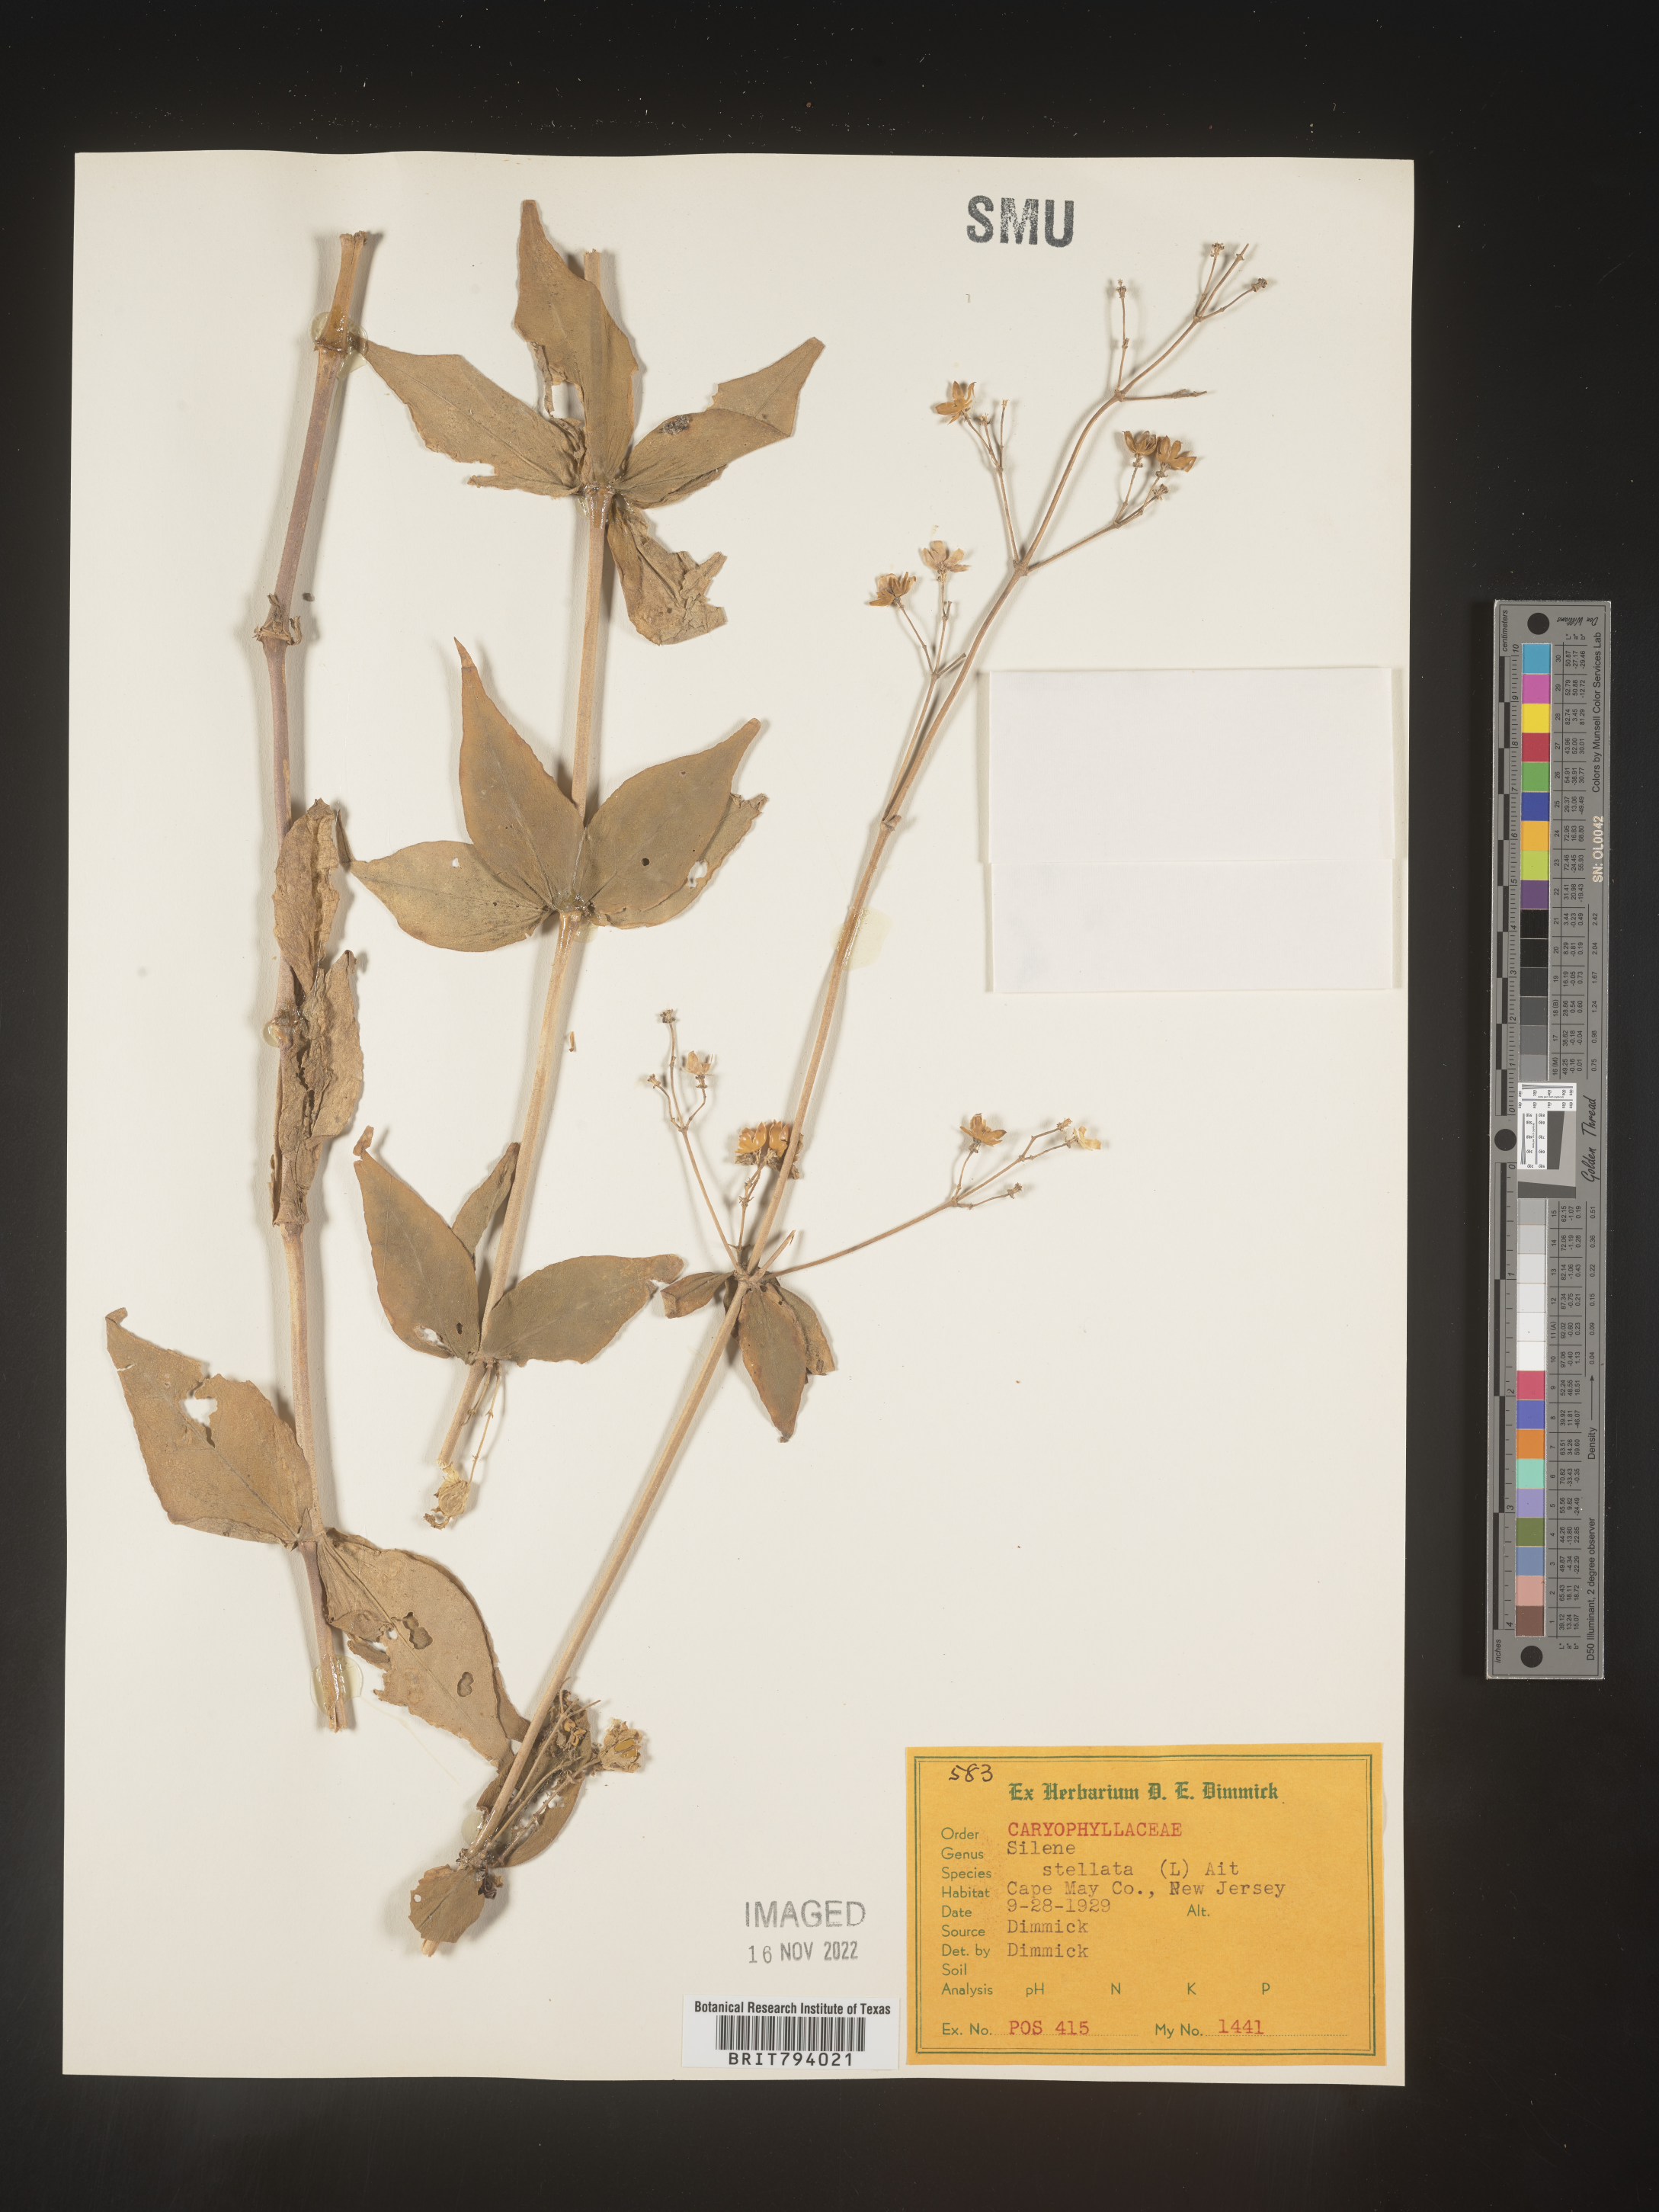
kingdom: Plantae
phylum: Tracheophyta
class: Magnoliopsida
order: Caryophyllales
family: Caryophyllaceae
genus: Silene
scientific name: Silene stellata
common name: Starry campion
